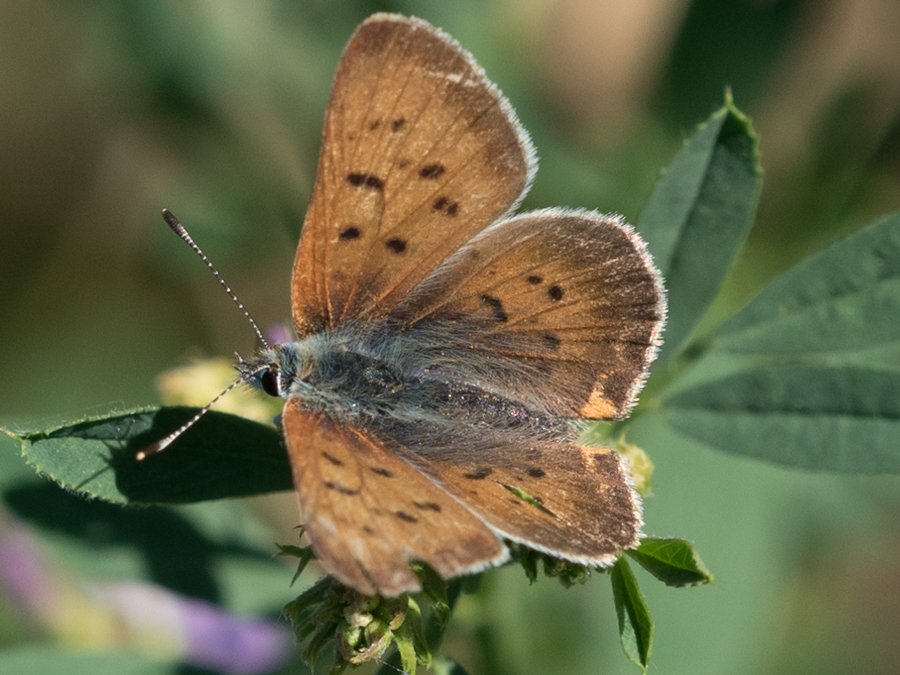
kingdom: Animalia
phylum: Arthropoda
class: Insecta
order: Lepidoptera
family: Sesiidae
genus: Sesia
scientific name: Sesia Lycaena helloides
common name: Purplish Copper
